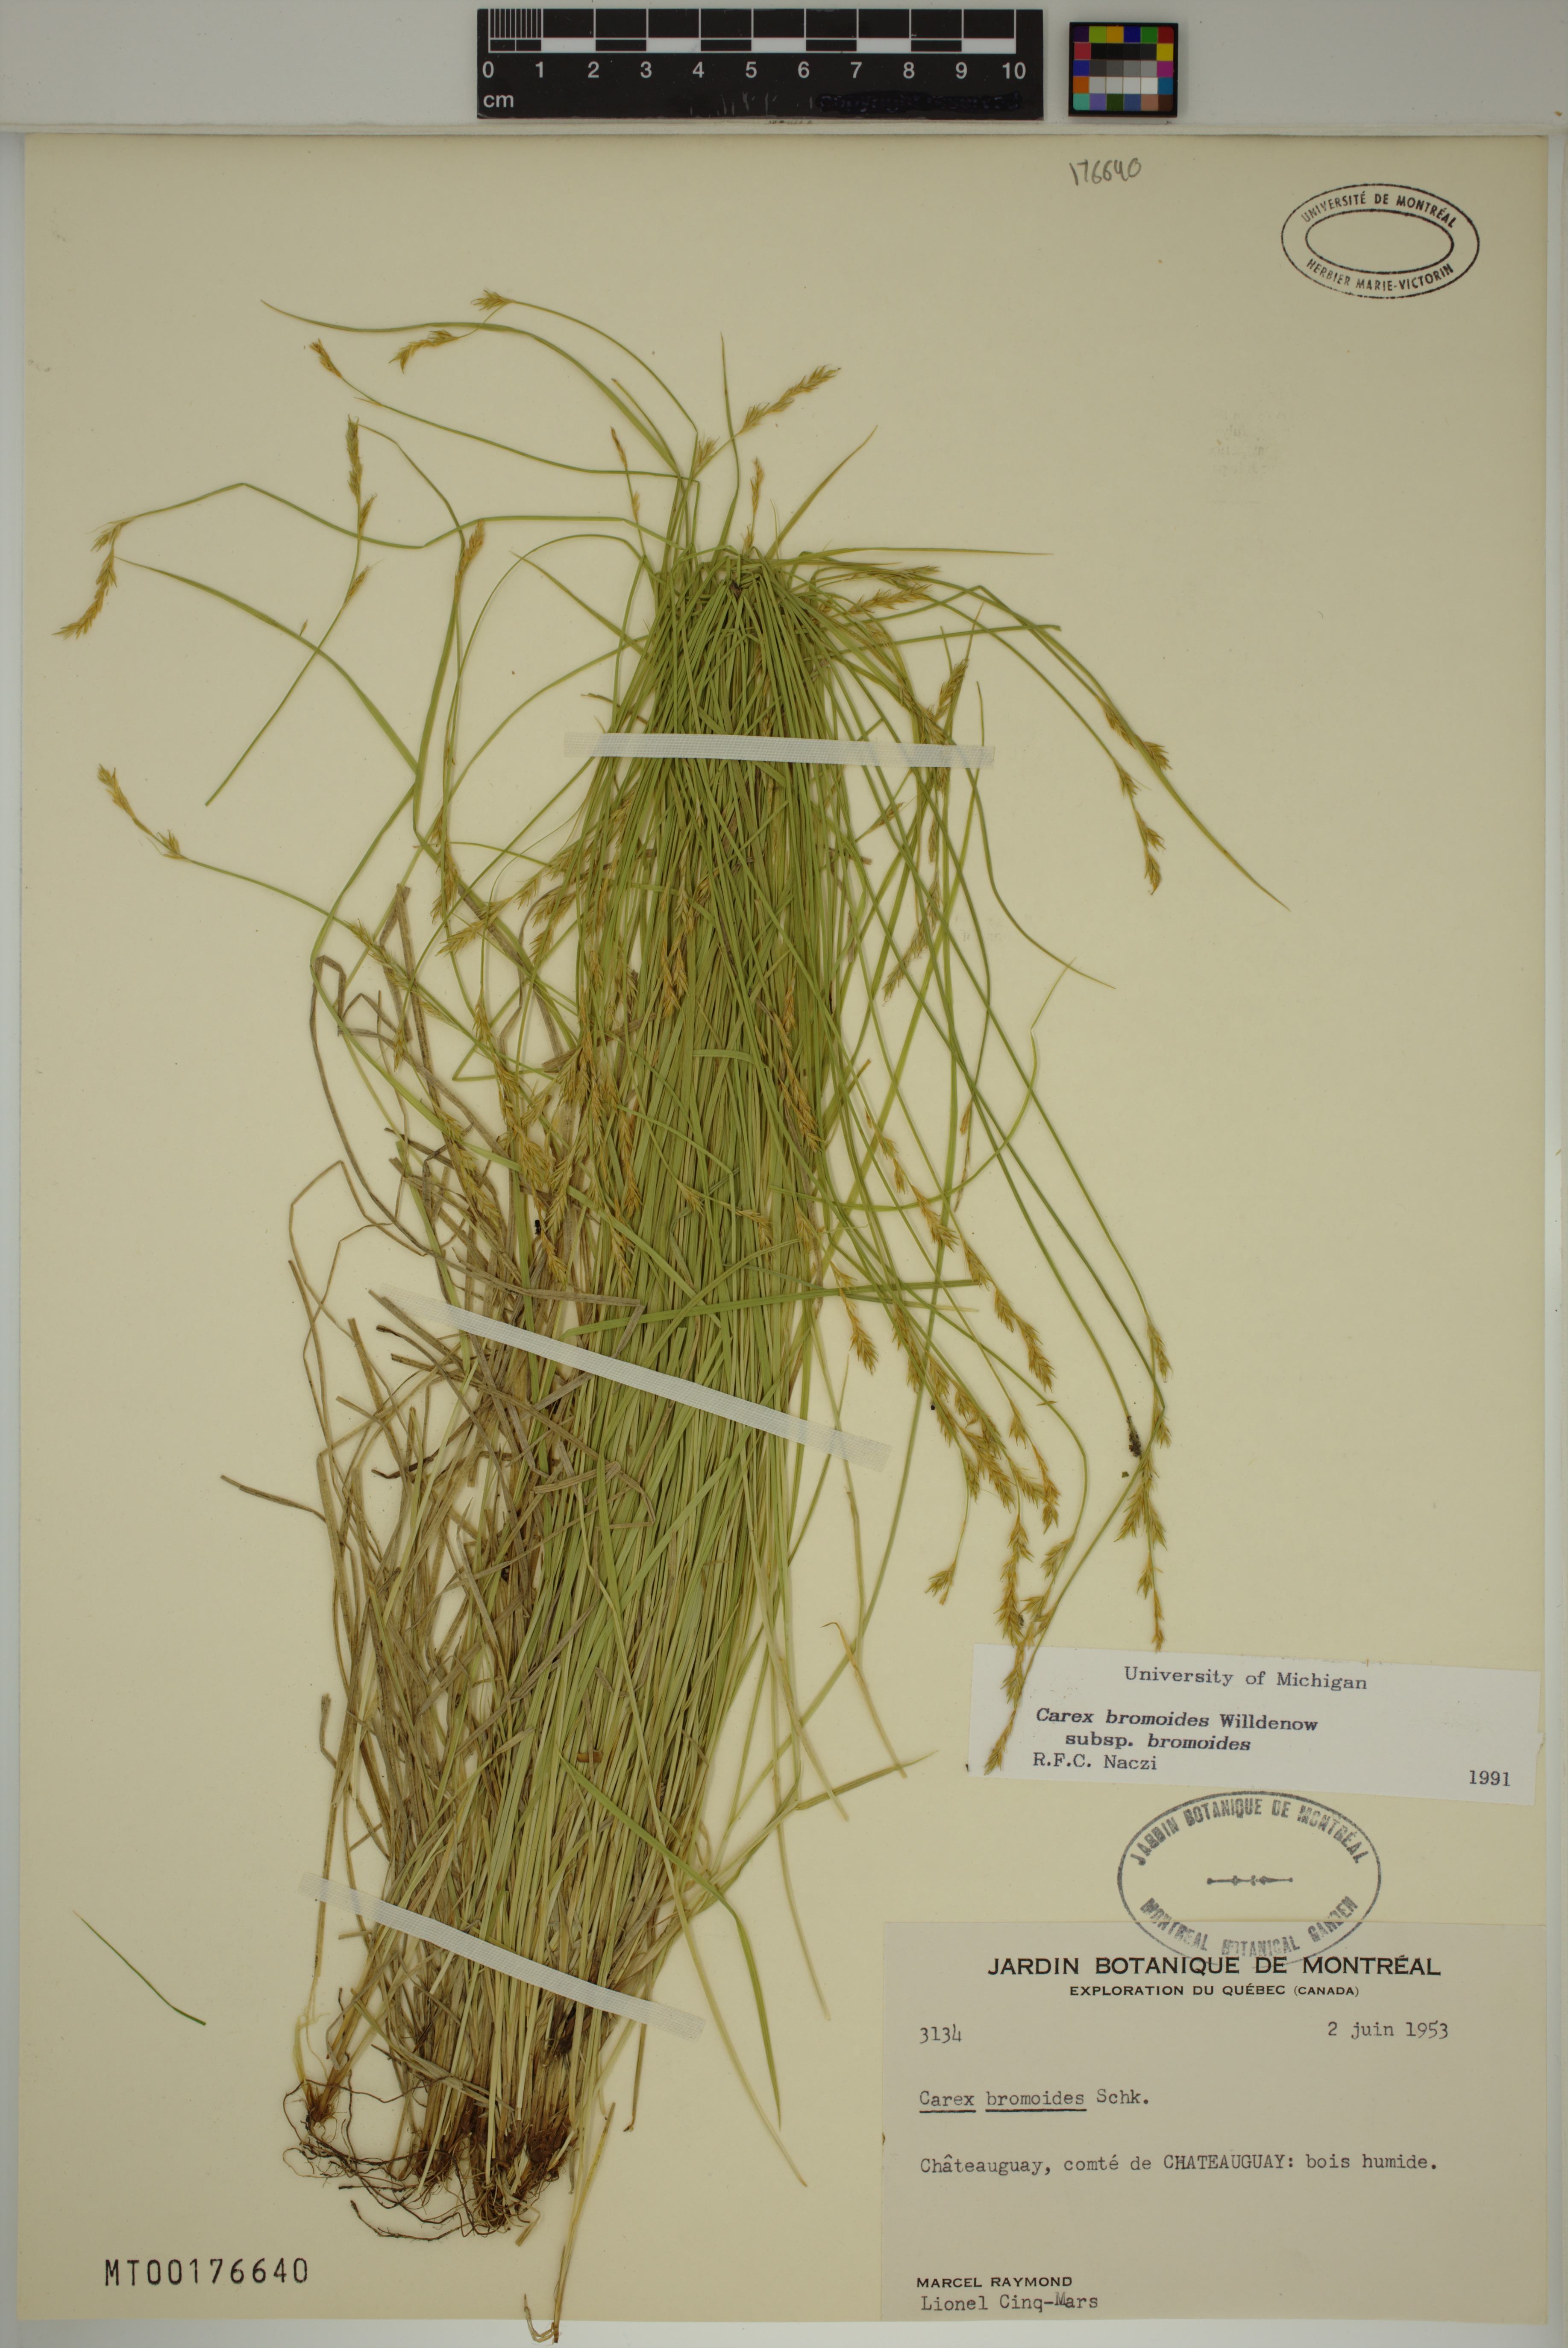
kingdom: Plantae
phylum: Tracheophyta
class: Liliopsida
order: Poales
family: Cyperaceae
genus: Carex
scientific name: Carex bromoides
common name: Brome hummock sedge
